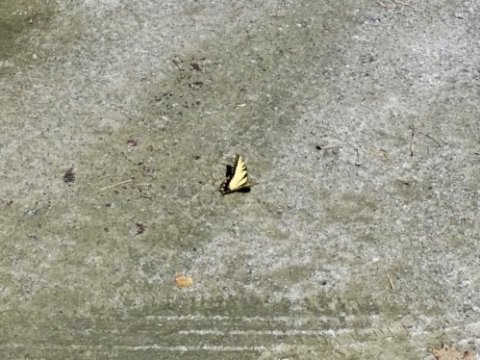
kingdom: Animalia
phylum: Arthropoda
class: Insecta
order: Lepidoptera
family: Papilionidae
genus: Pterourus
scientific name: Pterourus glaucus
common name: Eastern Tiger Swallowtail
